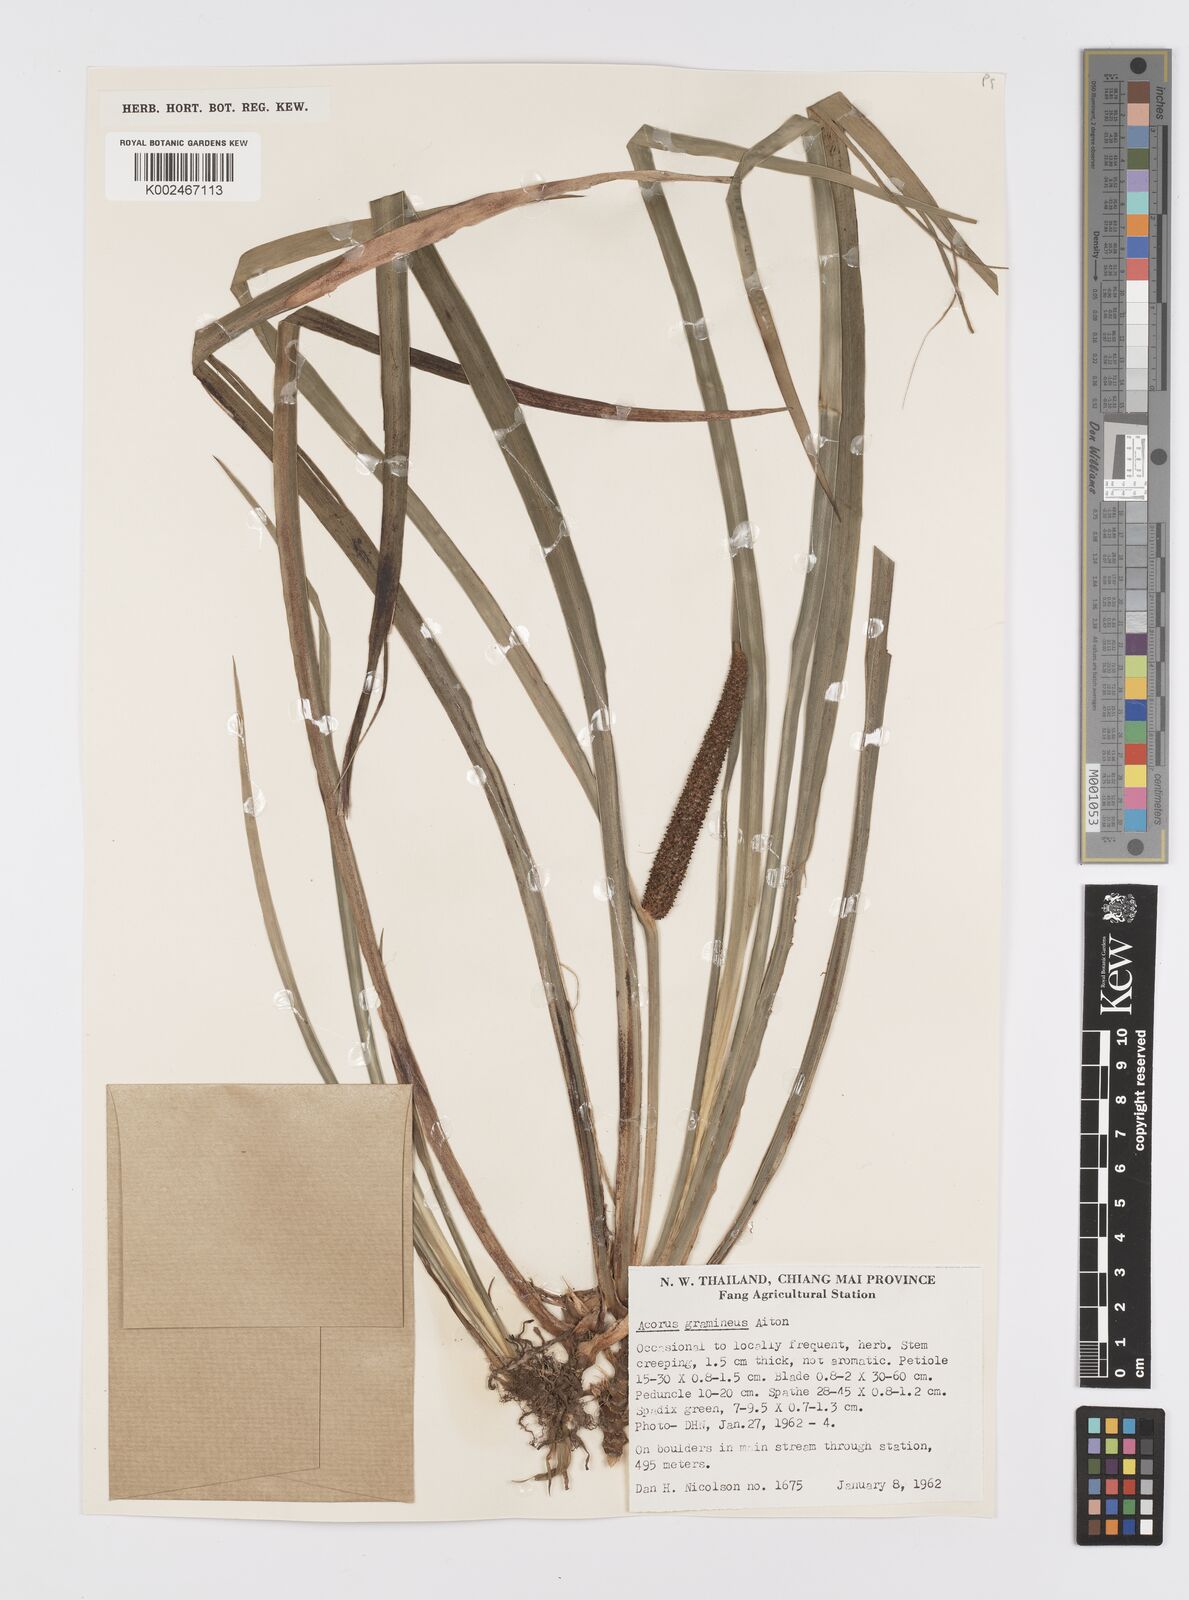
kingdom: Plantae
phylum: Tracheophyta
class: Liliopsida
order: Acorales
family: Acoraceae
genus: Acorus
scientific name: Acorus gramineus
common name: Slender sweet-flag
